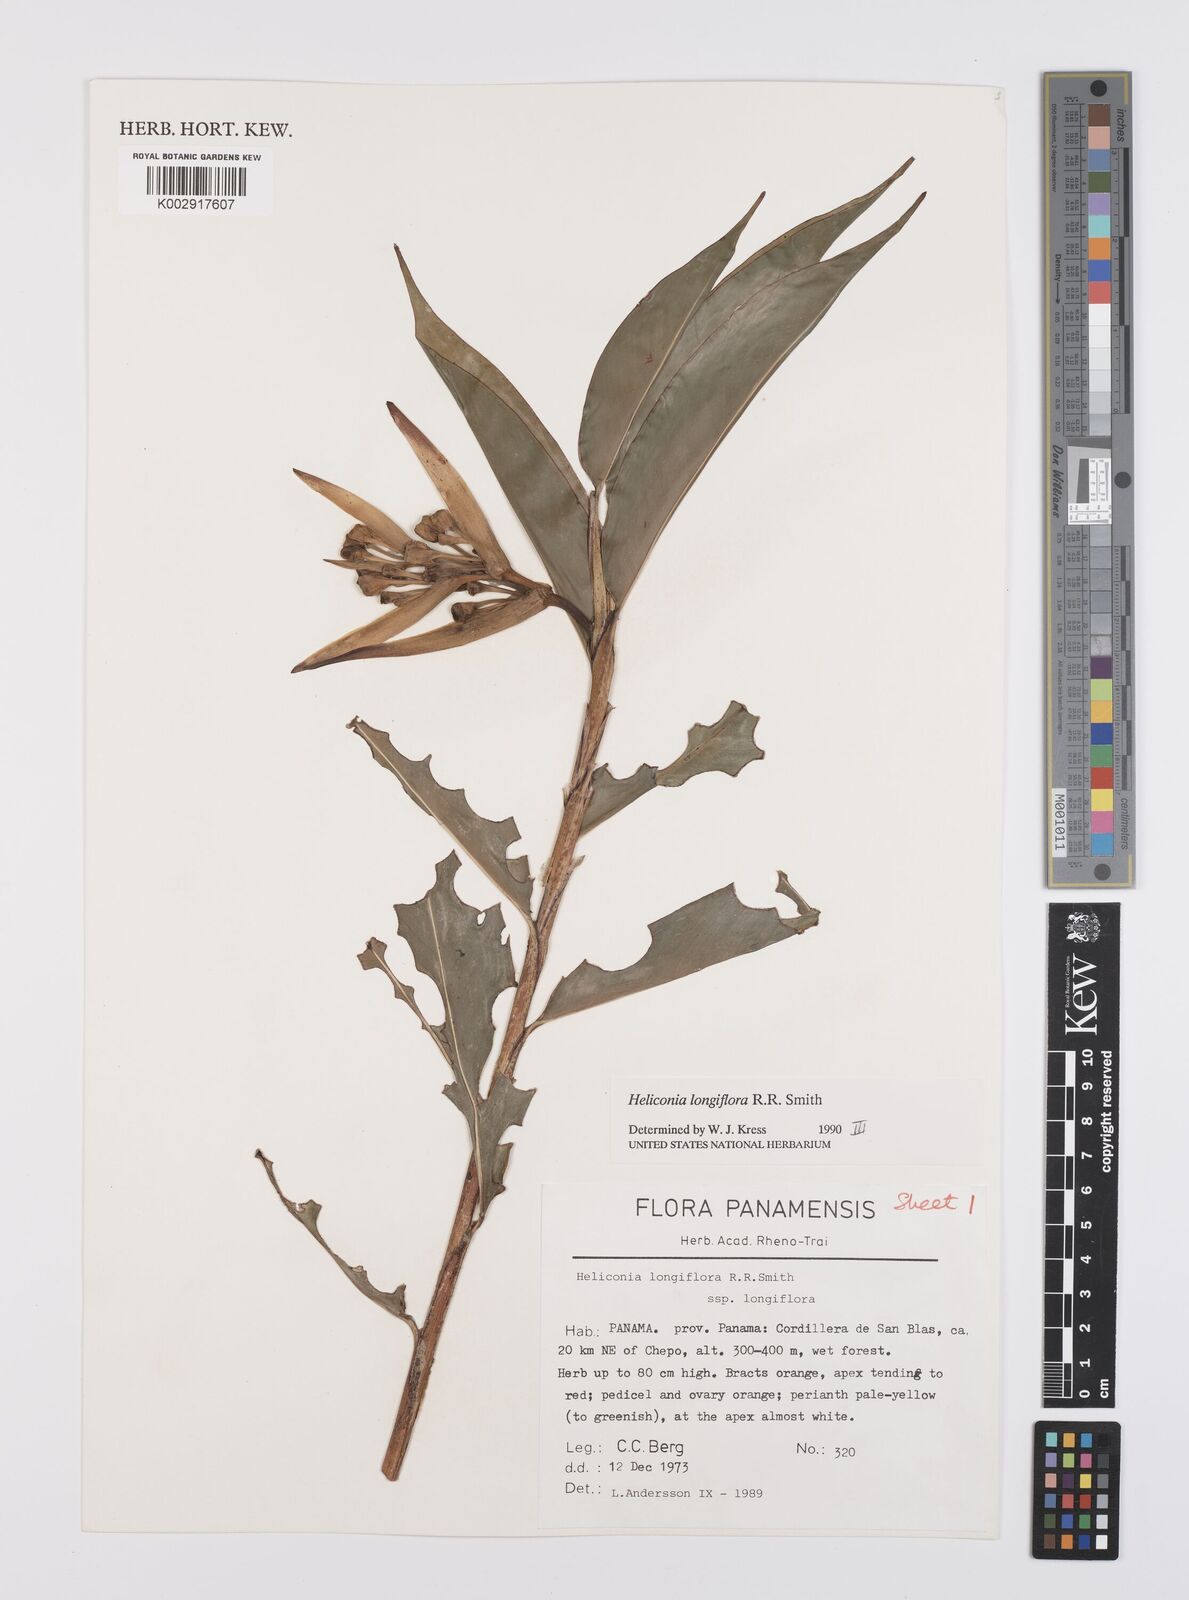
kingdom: Plantae
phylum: Tracheophyta
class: Liliopsida
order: Zingiberales
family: Heliconiaceae
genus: Heliconia
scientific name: Heliconia longiflora
